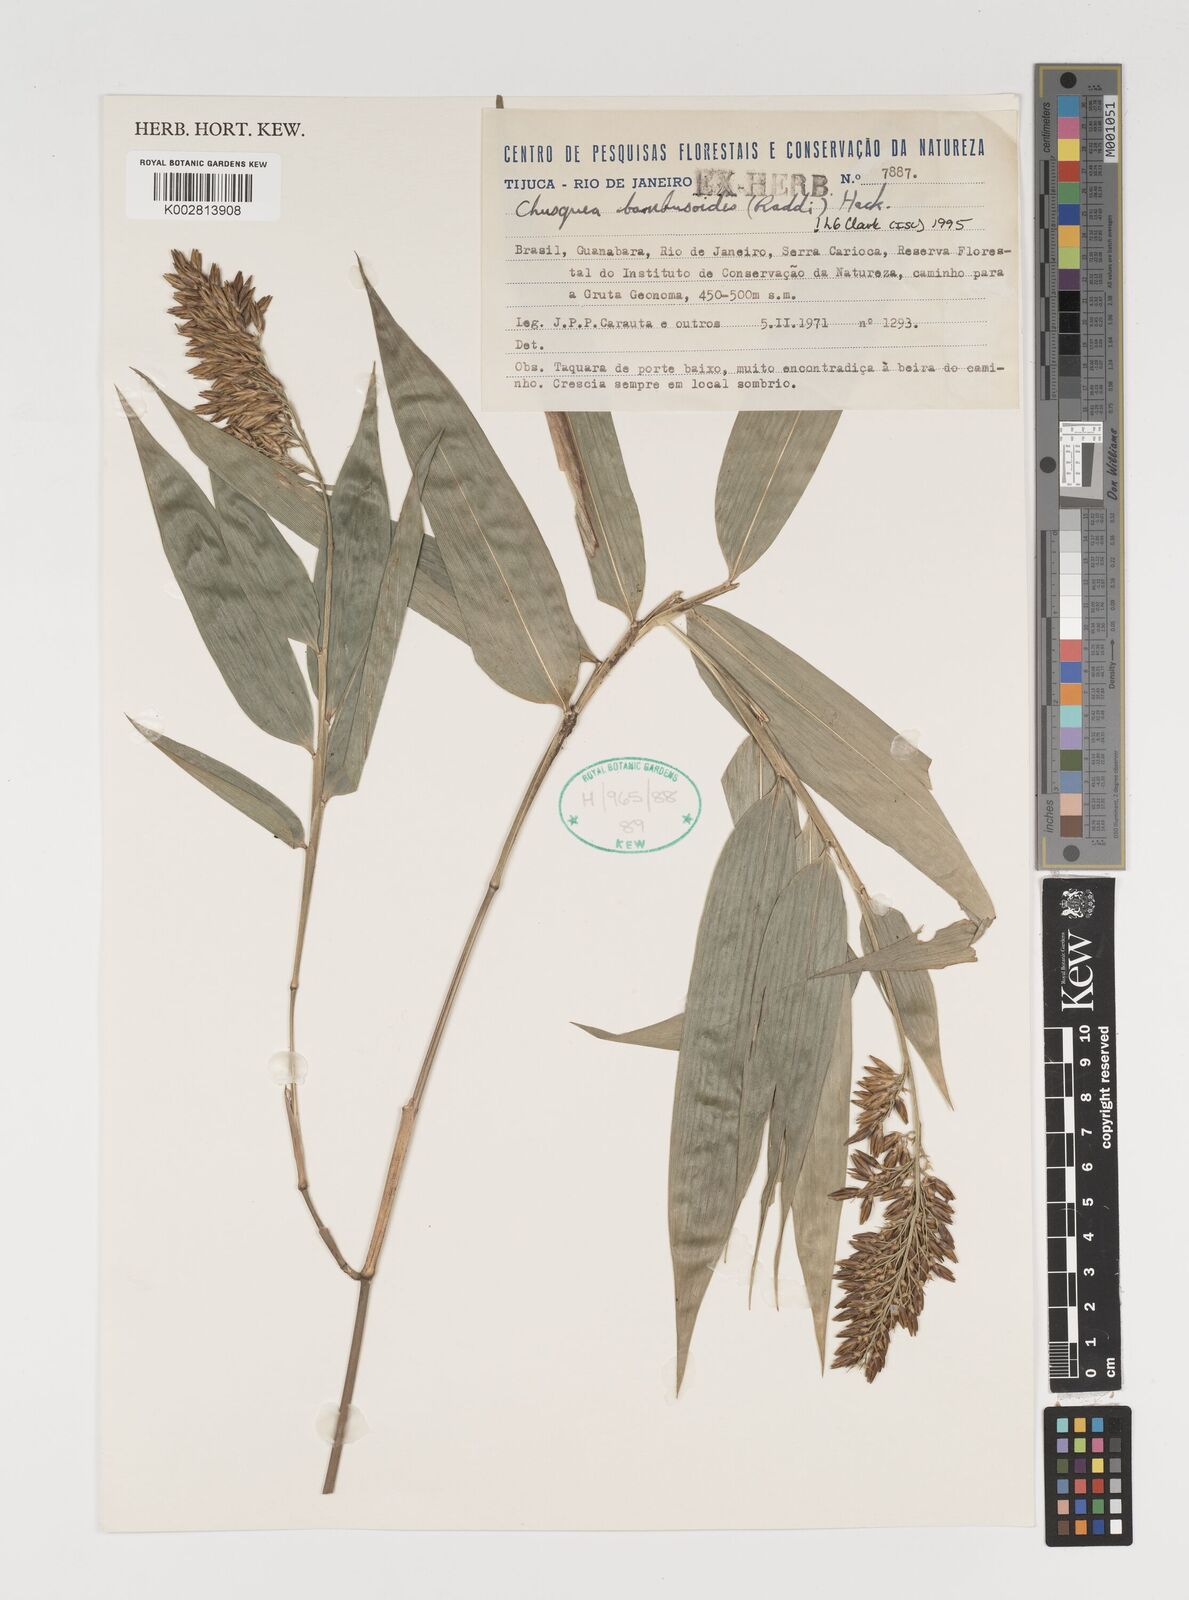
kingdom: Plantae
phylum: Tracheophyta
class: Liliopsida
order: Poales
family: Poaceae
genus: Chusquea
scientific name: Chusquea bambusoides
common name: Brazil scrambling bamboo
